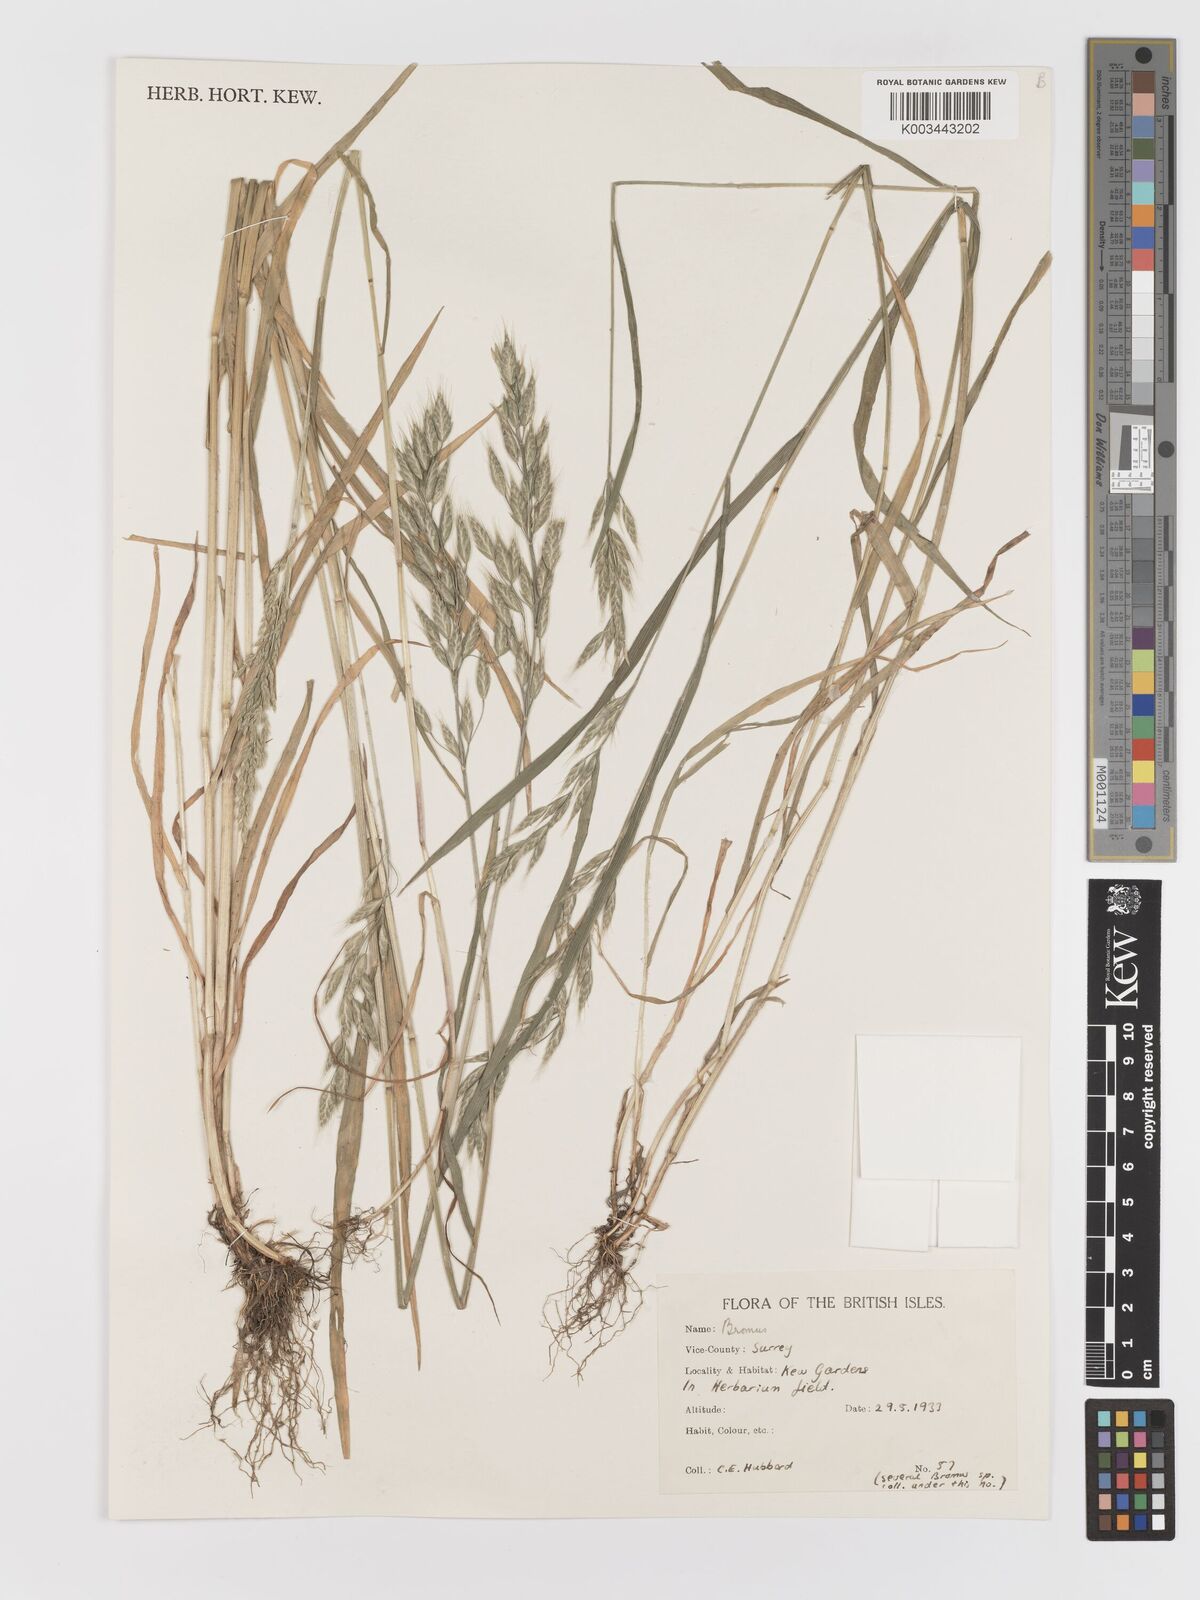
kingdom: Plantae
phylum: Tracheophyta
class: Liliopsida
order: Poales
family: Poaceae
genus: Bromus
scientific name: Bromus
